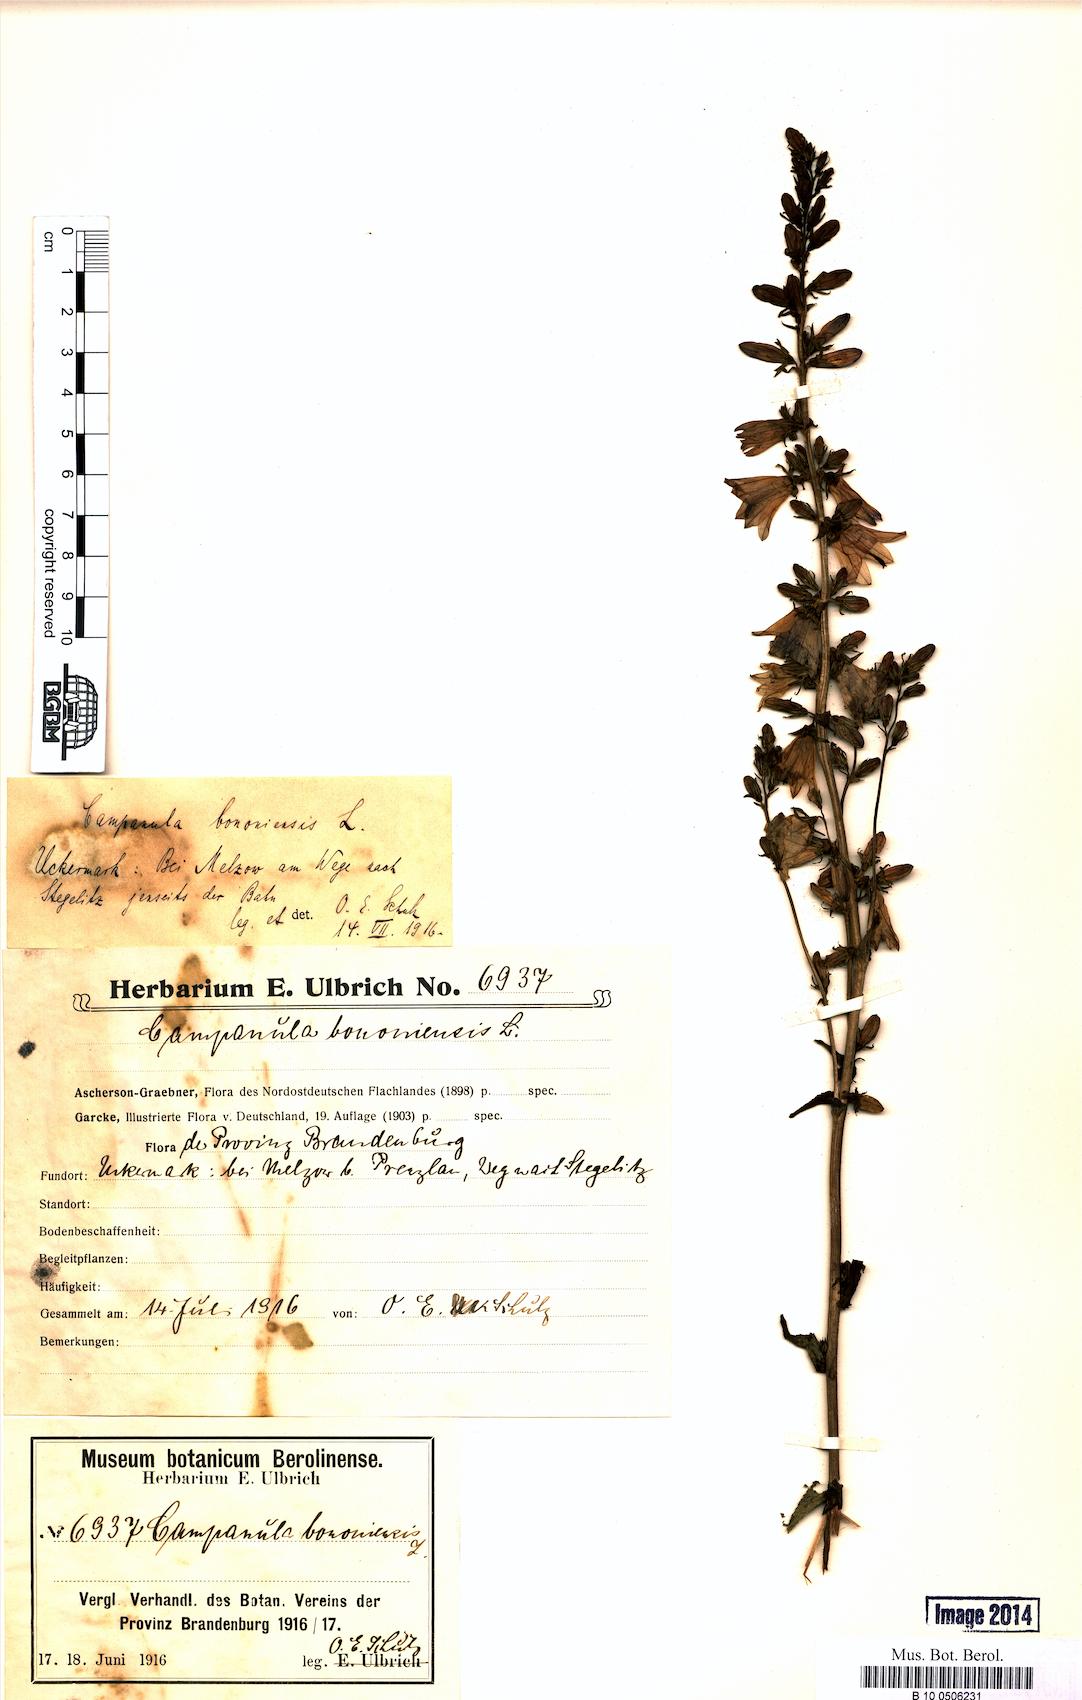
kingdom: Plantae
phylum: Tracheophyta
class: Magnoliopsida
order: Asterales
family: Campanulaceae
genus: Campanula
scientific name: Campanula bononiensis
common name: Pale bellflower
